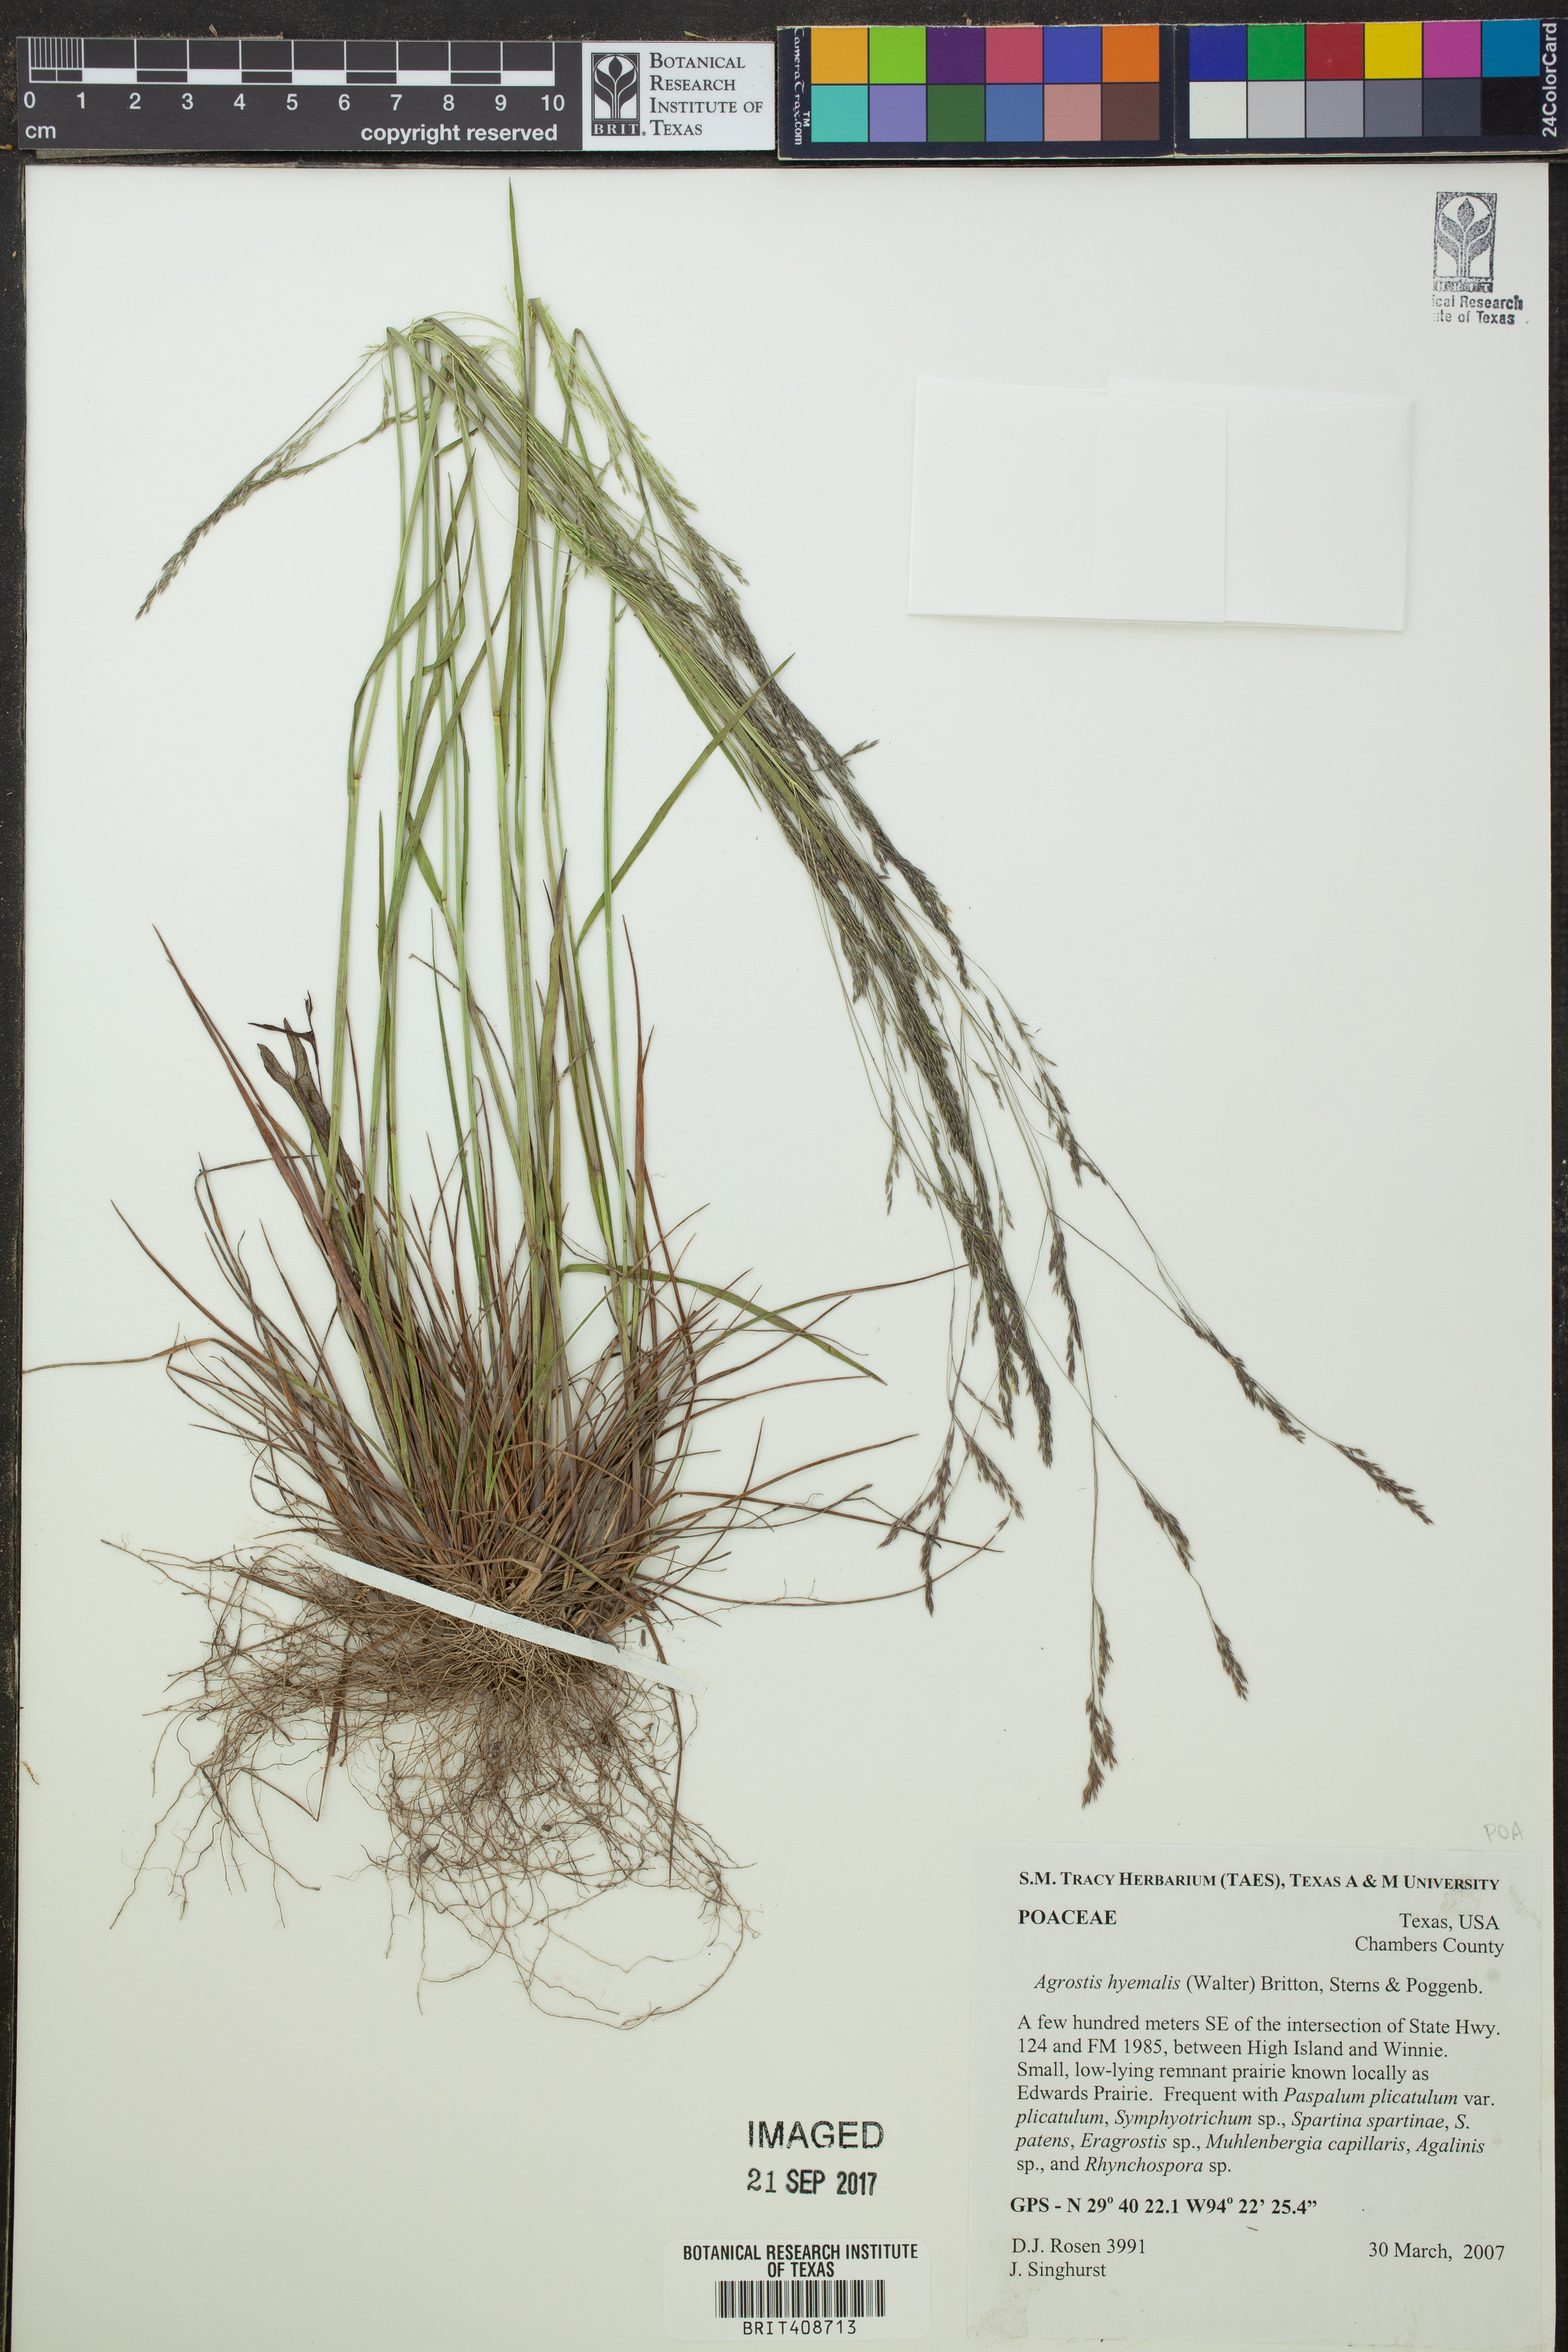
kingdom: Plantae
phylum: Tracheophyta
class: Liliopsida
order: Poales
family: Poaceae
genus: Agrostis
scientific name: Agrostis hyemalis
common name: Small bent
